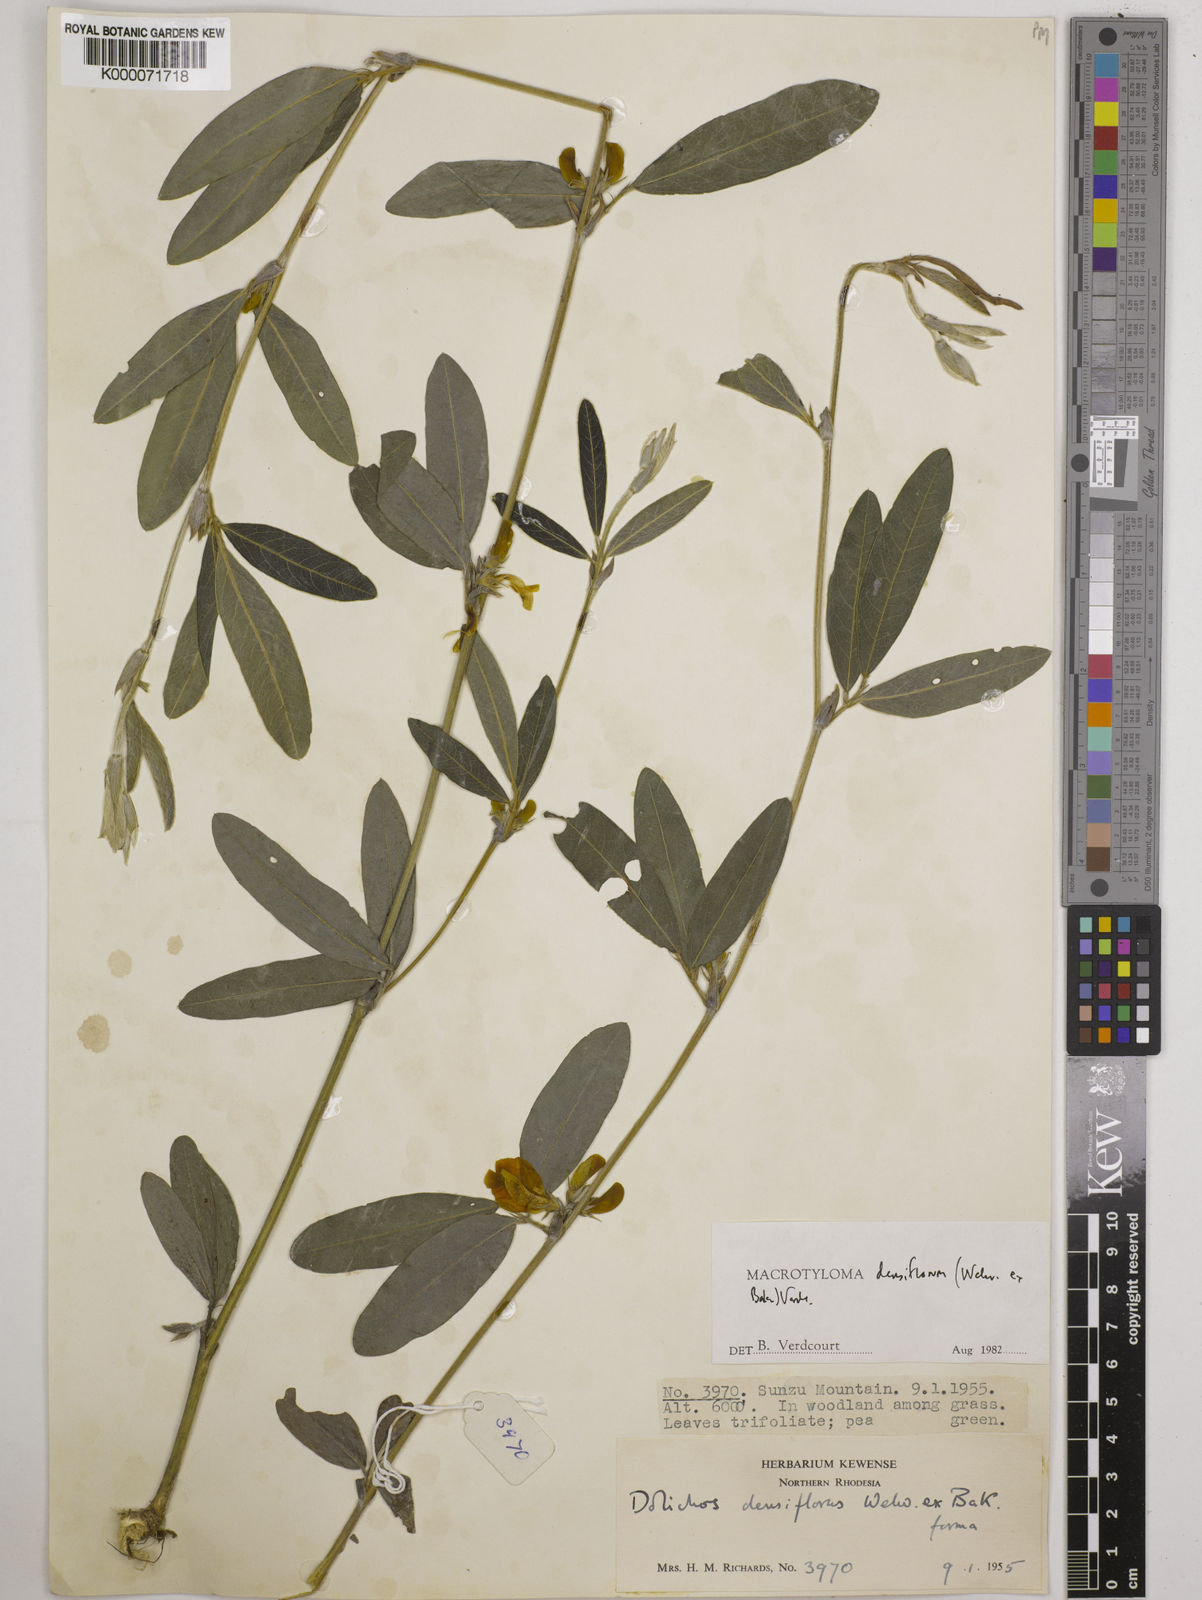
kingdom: Plantae
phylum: Tracheophyta
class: Magnoliopsida
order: Fabales
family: Fabaceae
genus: Macrotyloma
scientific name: Macrotyloma densiflorum
